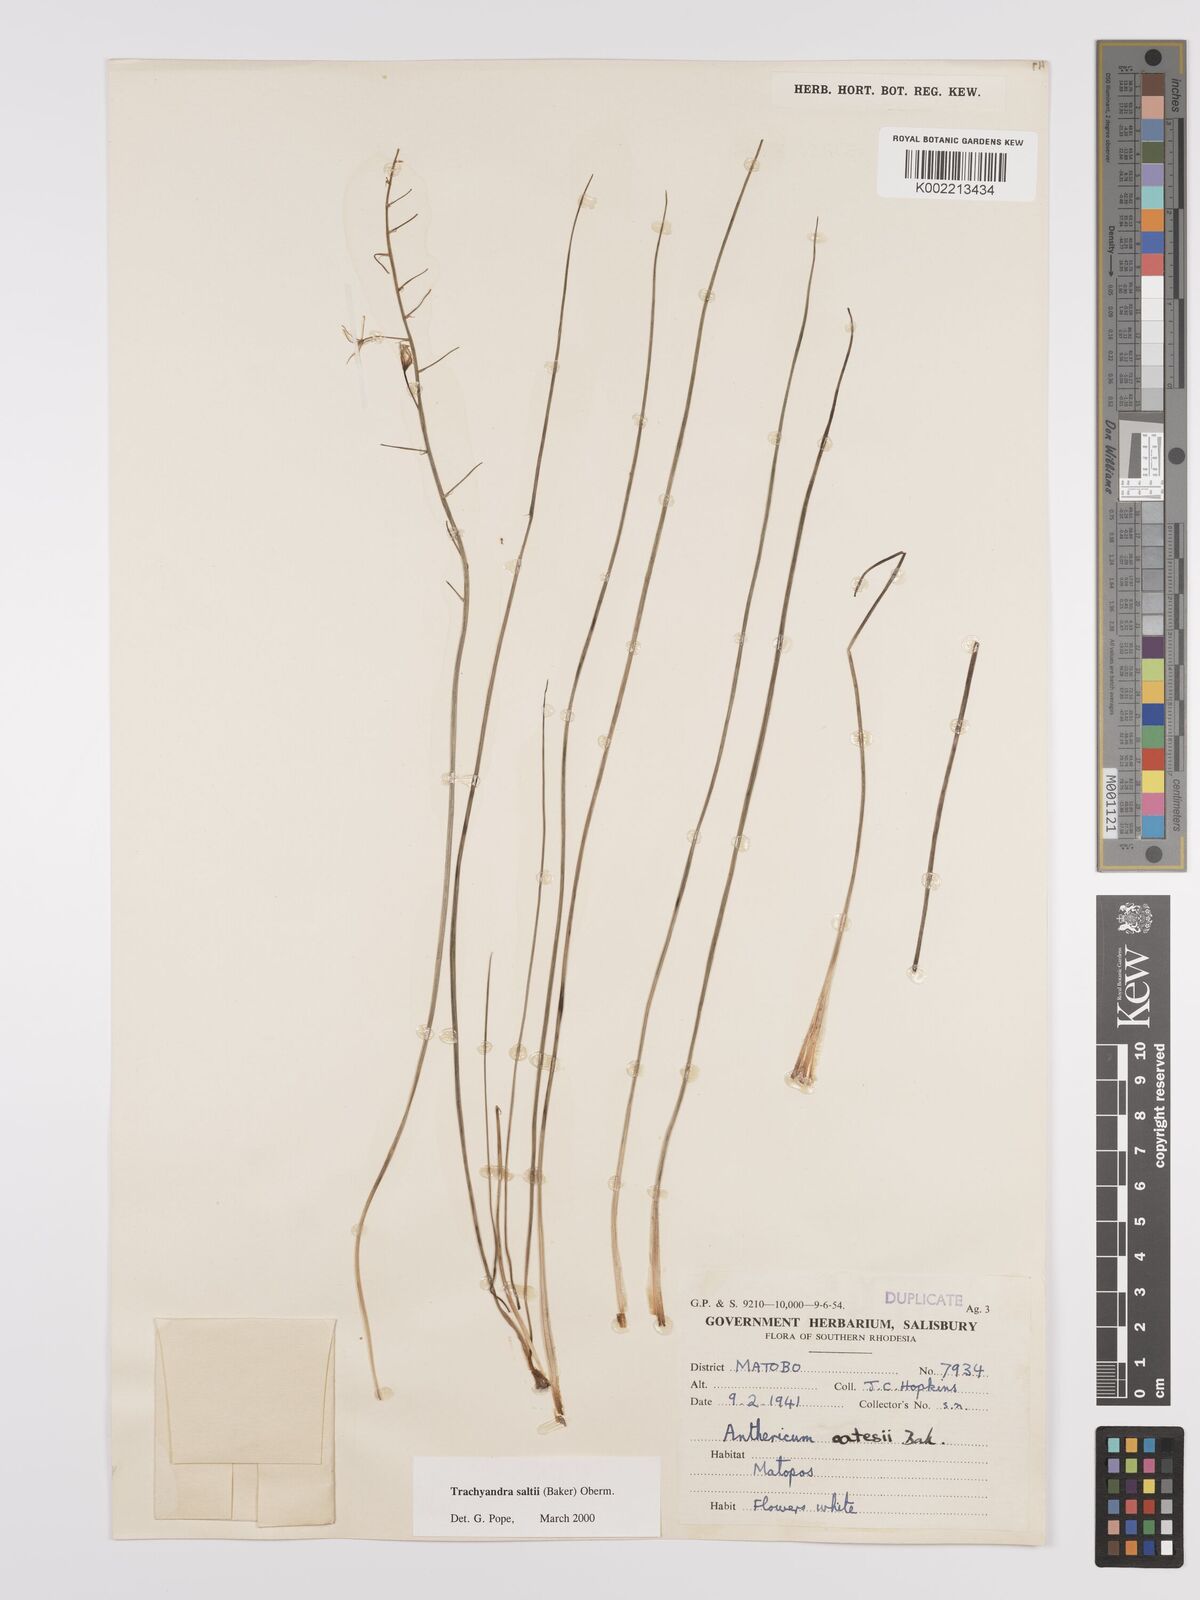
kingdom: Plantae
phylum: Tracheophyta
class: Liliopsida
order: Asparagales
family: Asphodelaceae
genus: Trachyandra
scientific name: Trachyandra saltii
